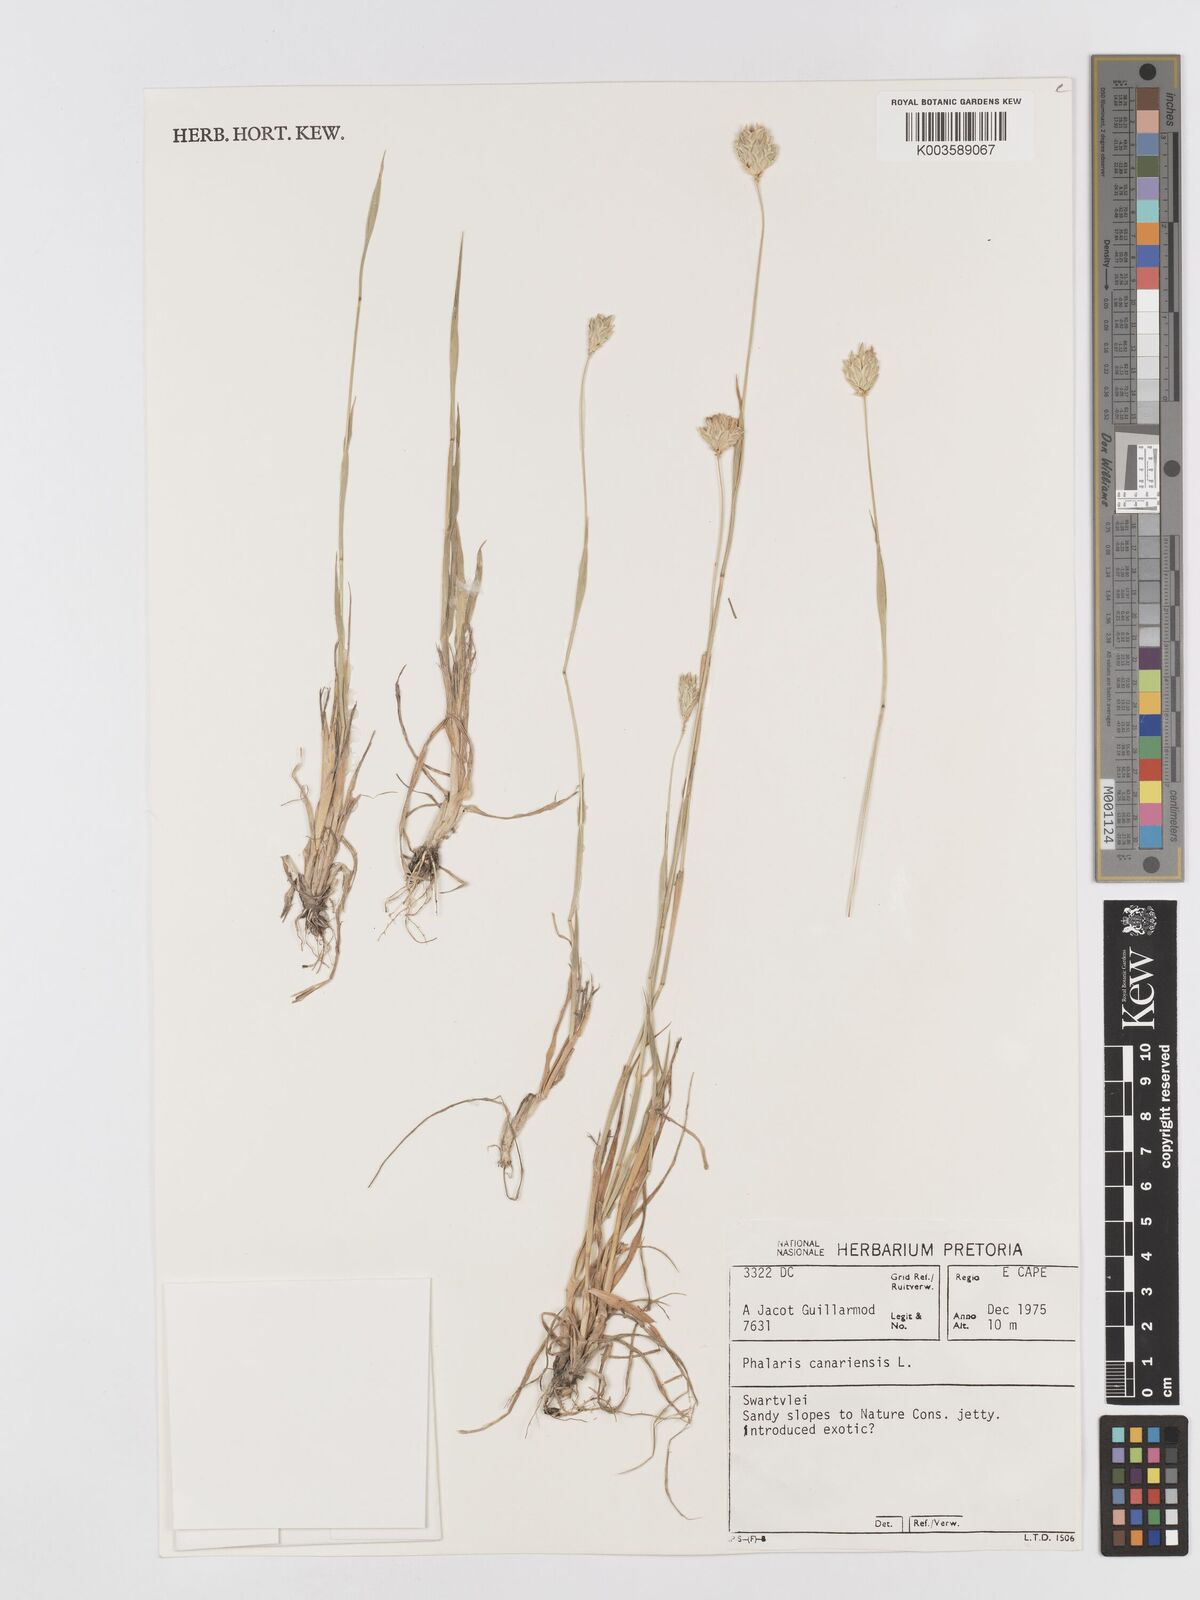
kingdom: Plantae
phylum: Tracheophyta
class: Liliopsida
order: Poales
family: Poaceae
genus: Phalaris
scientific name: Phalaris canariensis
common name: Annual canarygrass
